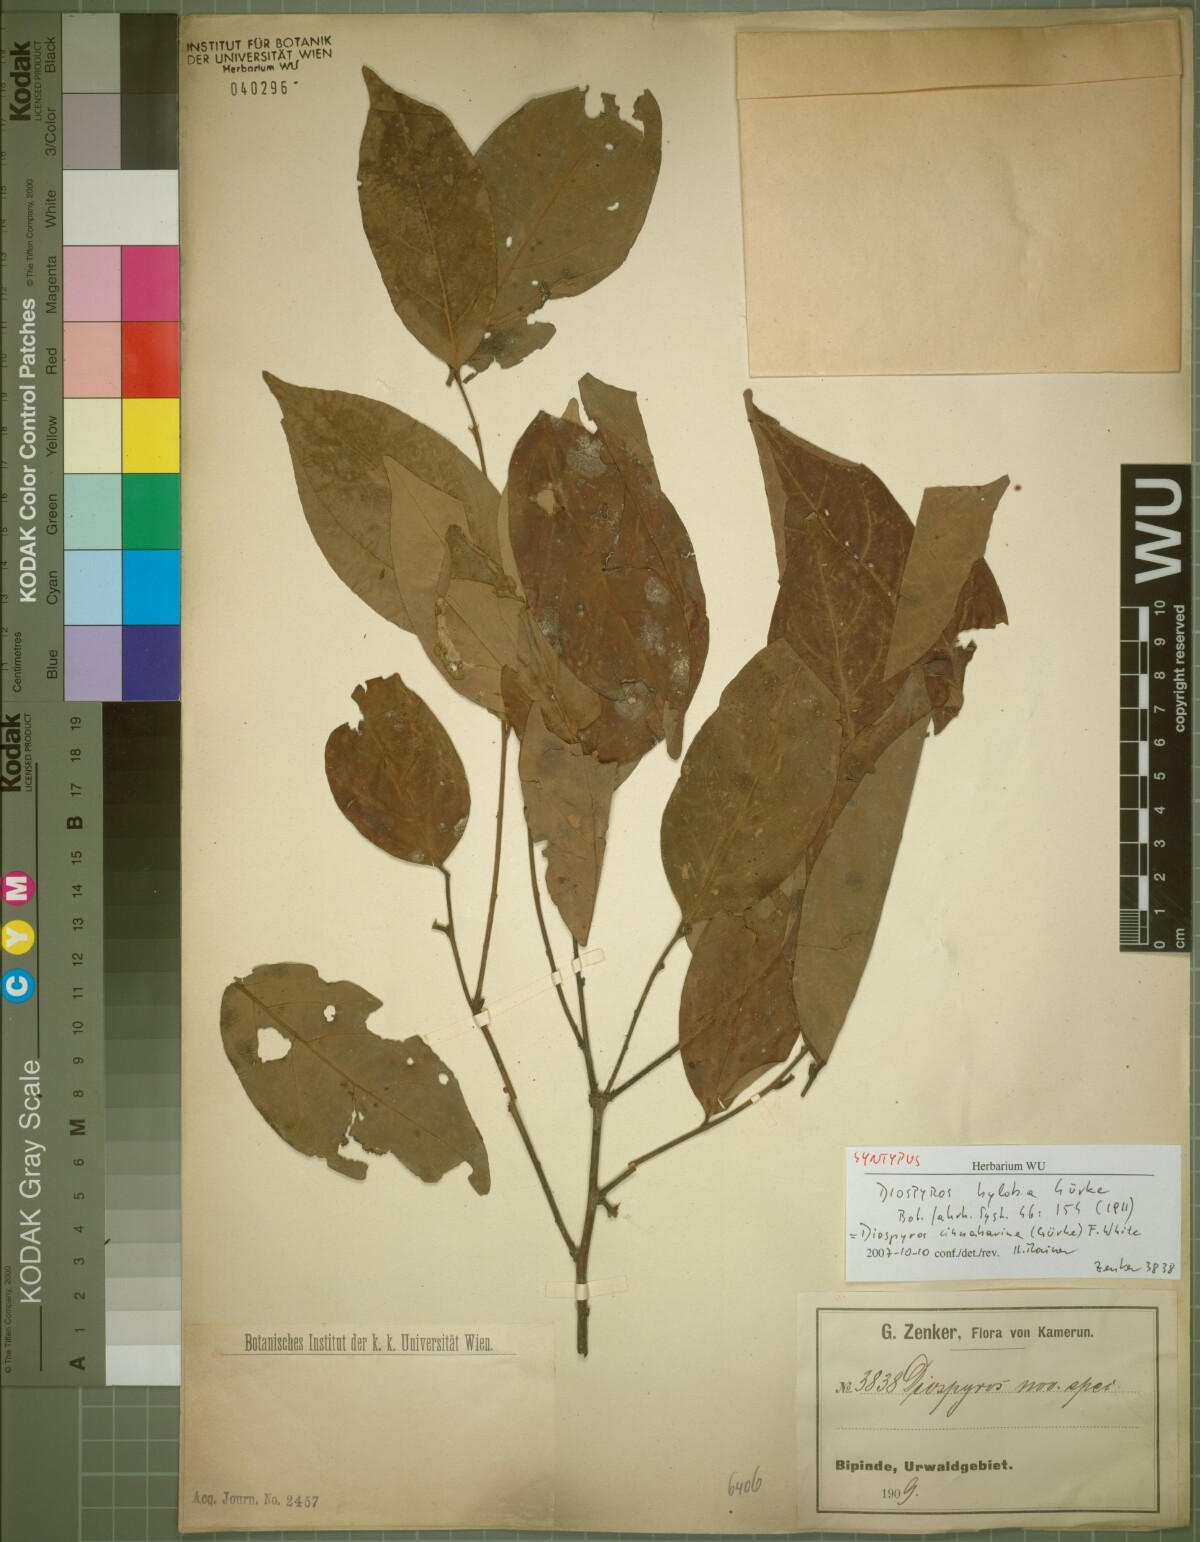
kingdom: Plantae
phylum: Tracheophyta
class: Magnoliopsida
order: Ericales
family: Ebenaceae
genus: Diospyros
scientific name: Diospyros cinnabarina
